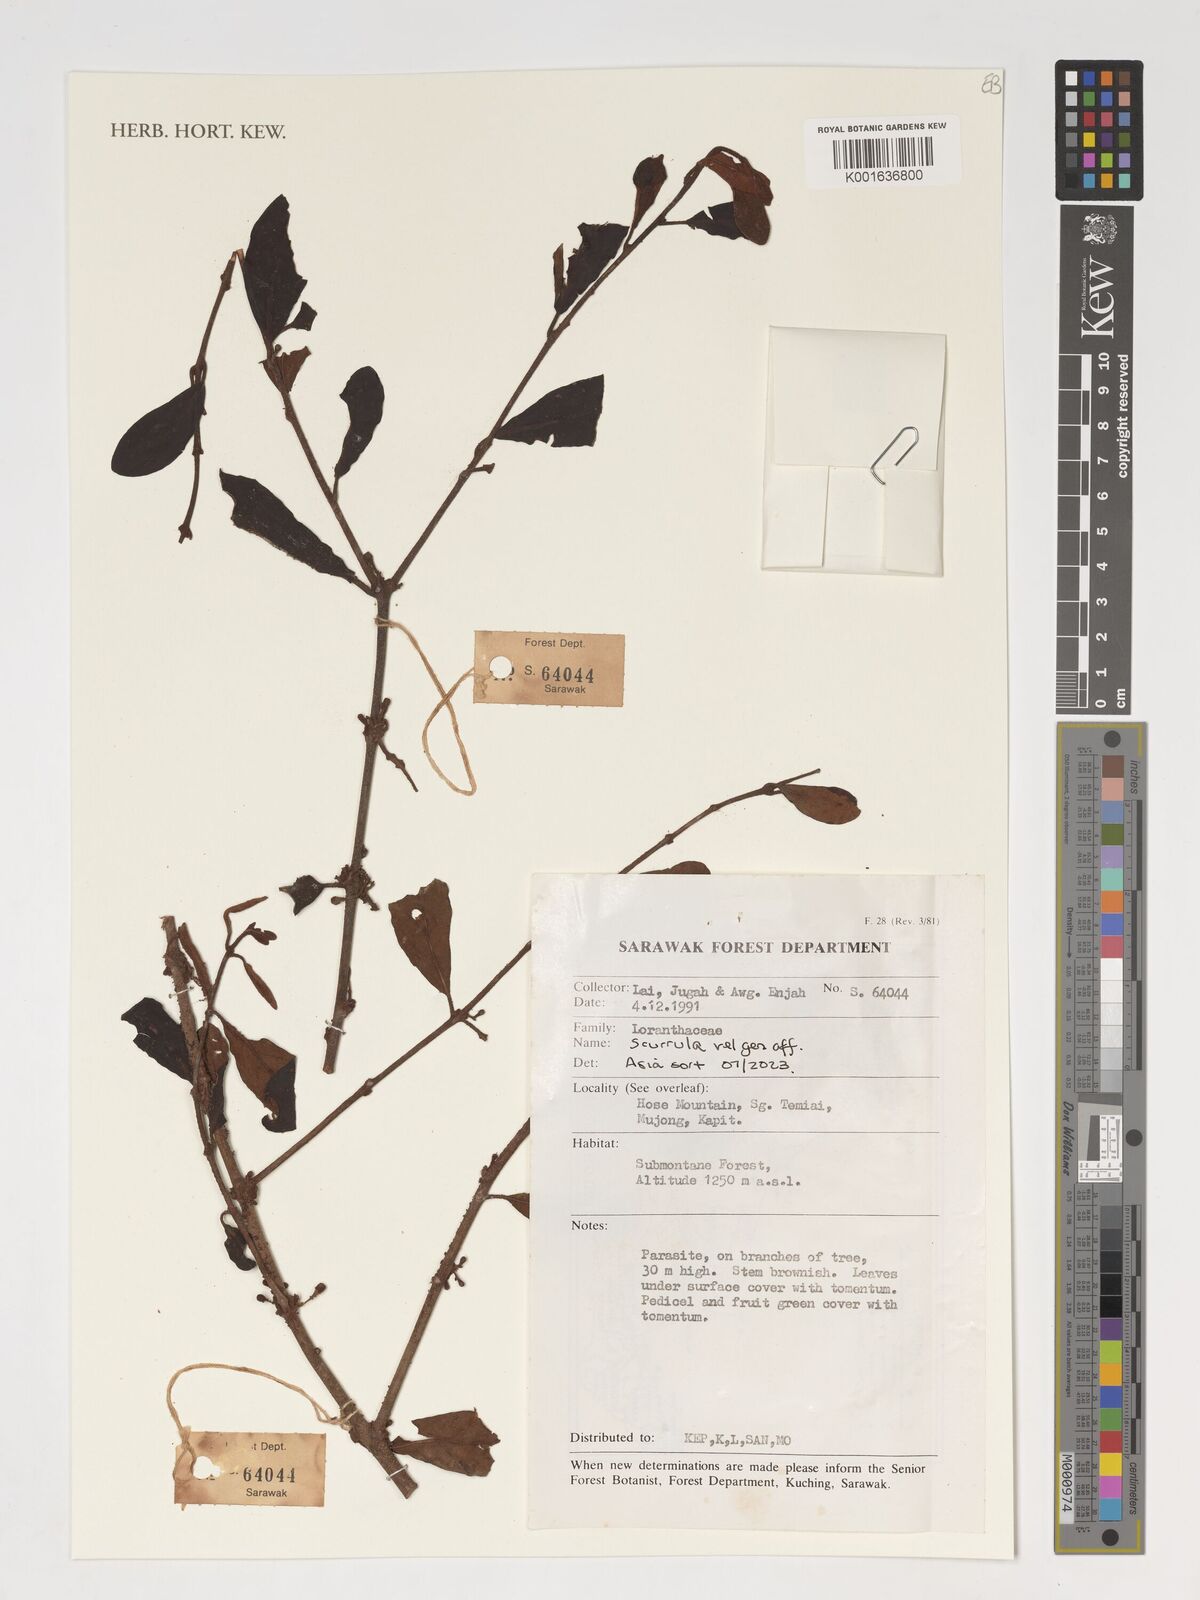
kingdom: Plantae
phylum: Tracheophyta
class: Magnoliopsida
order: Santalales
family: Loranthaceae
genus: Scurrula
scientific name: Scurrula
